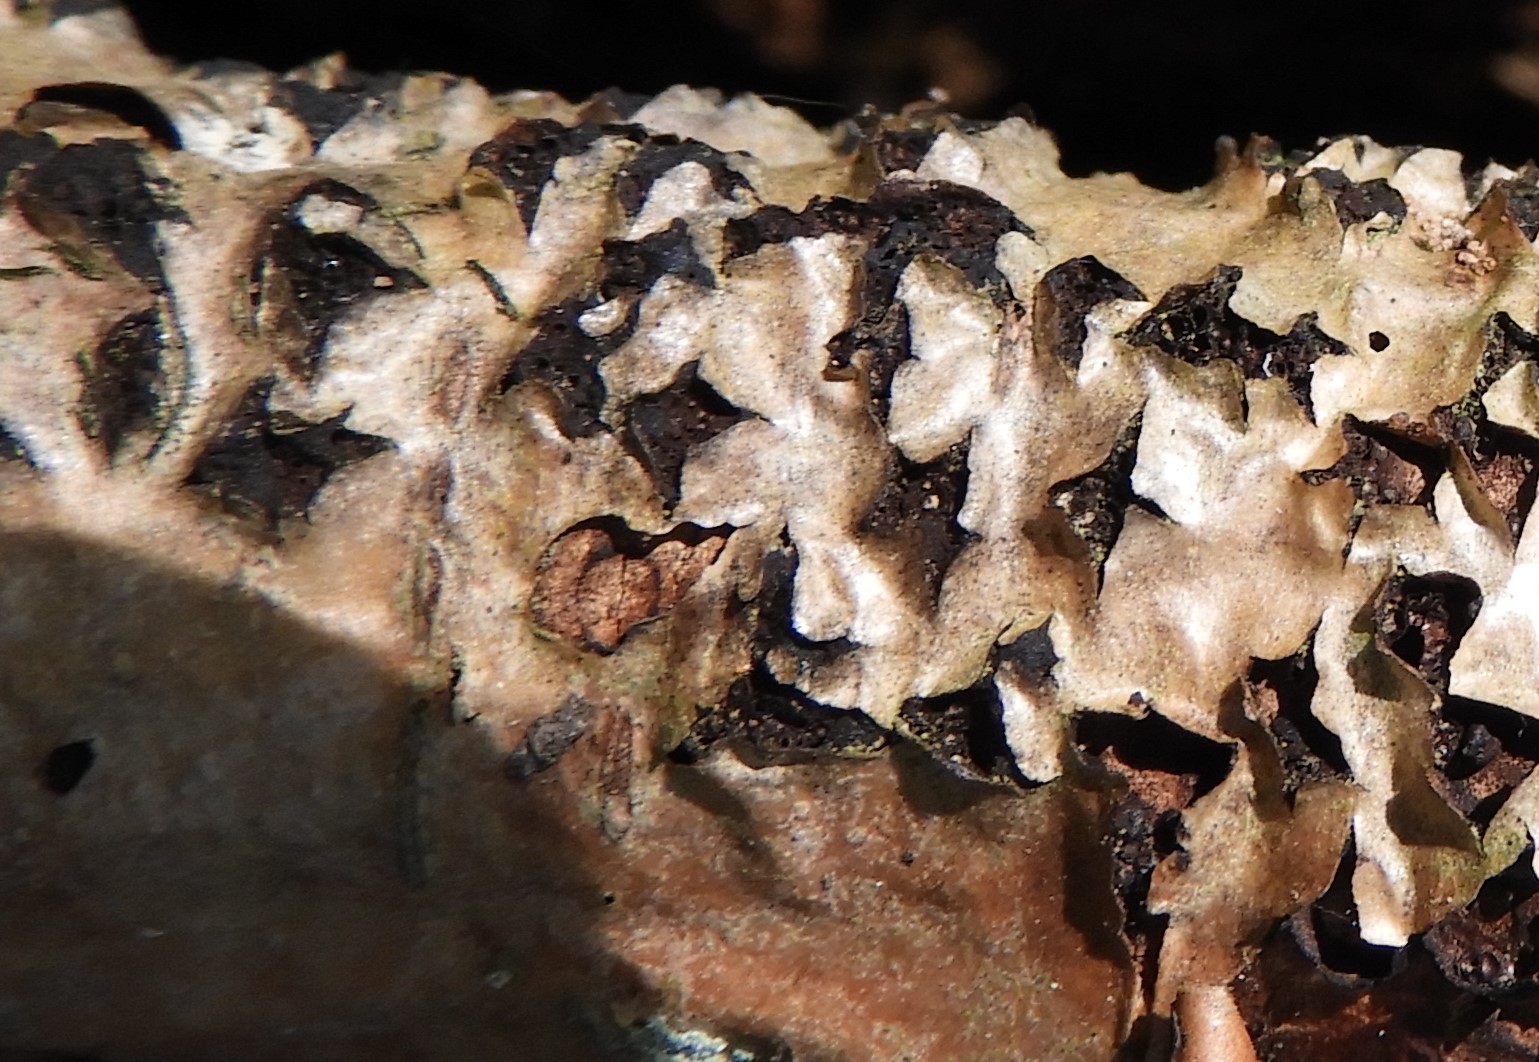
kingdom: Fungi
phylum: Ascomycota
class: Sordariomycetes
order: Xylariales
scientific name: Xylariales
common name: stødsvampordenen
